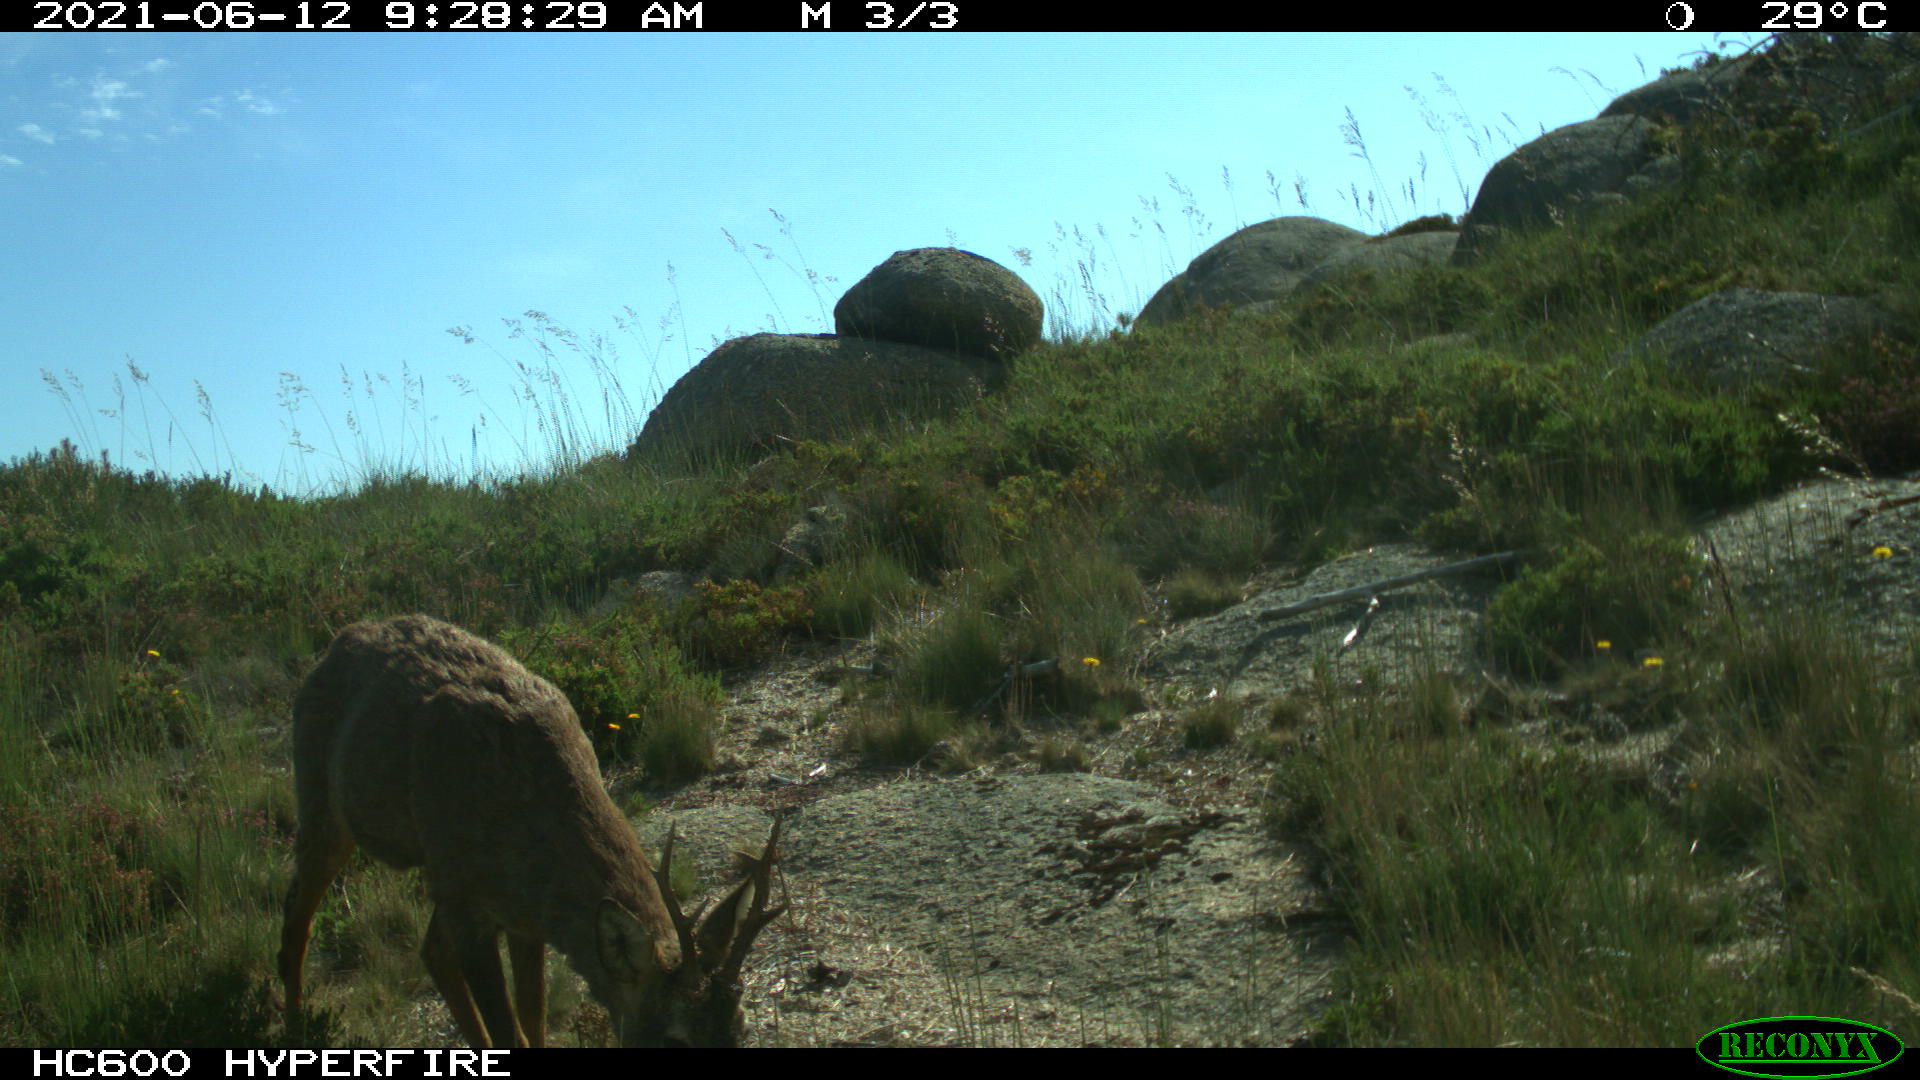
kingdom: Animalia
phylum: Chordata
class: Mammalia
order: Artiodactyla
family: Cervidae
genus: Capreolus
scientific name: Capreolus capreolus
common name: Western roe deer
